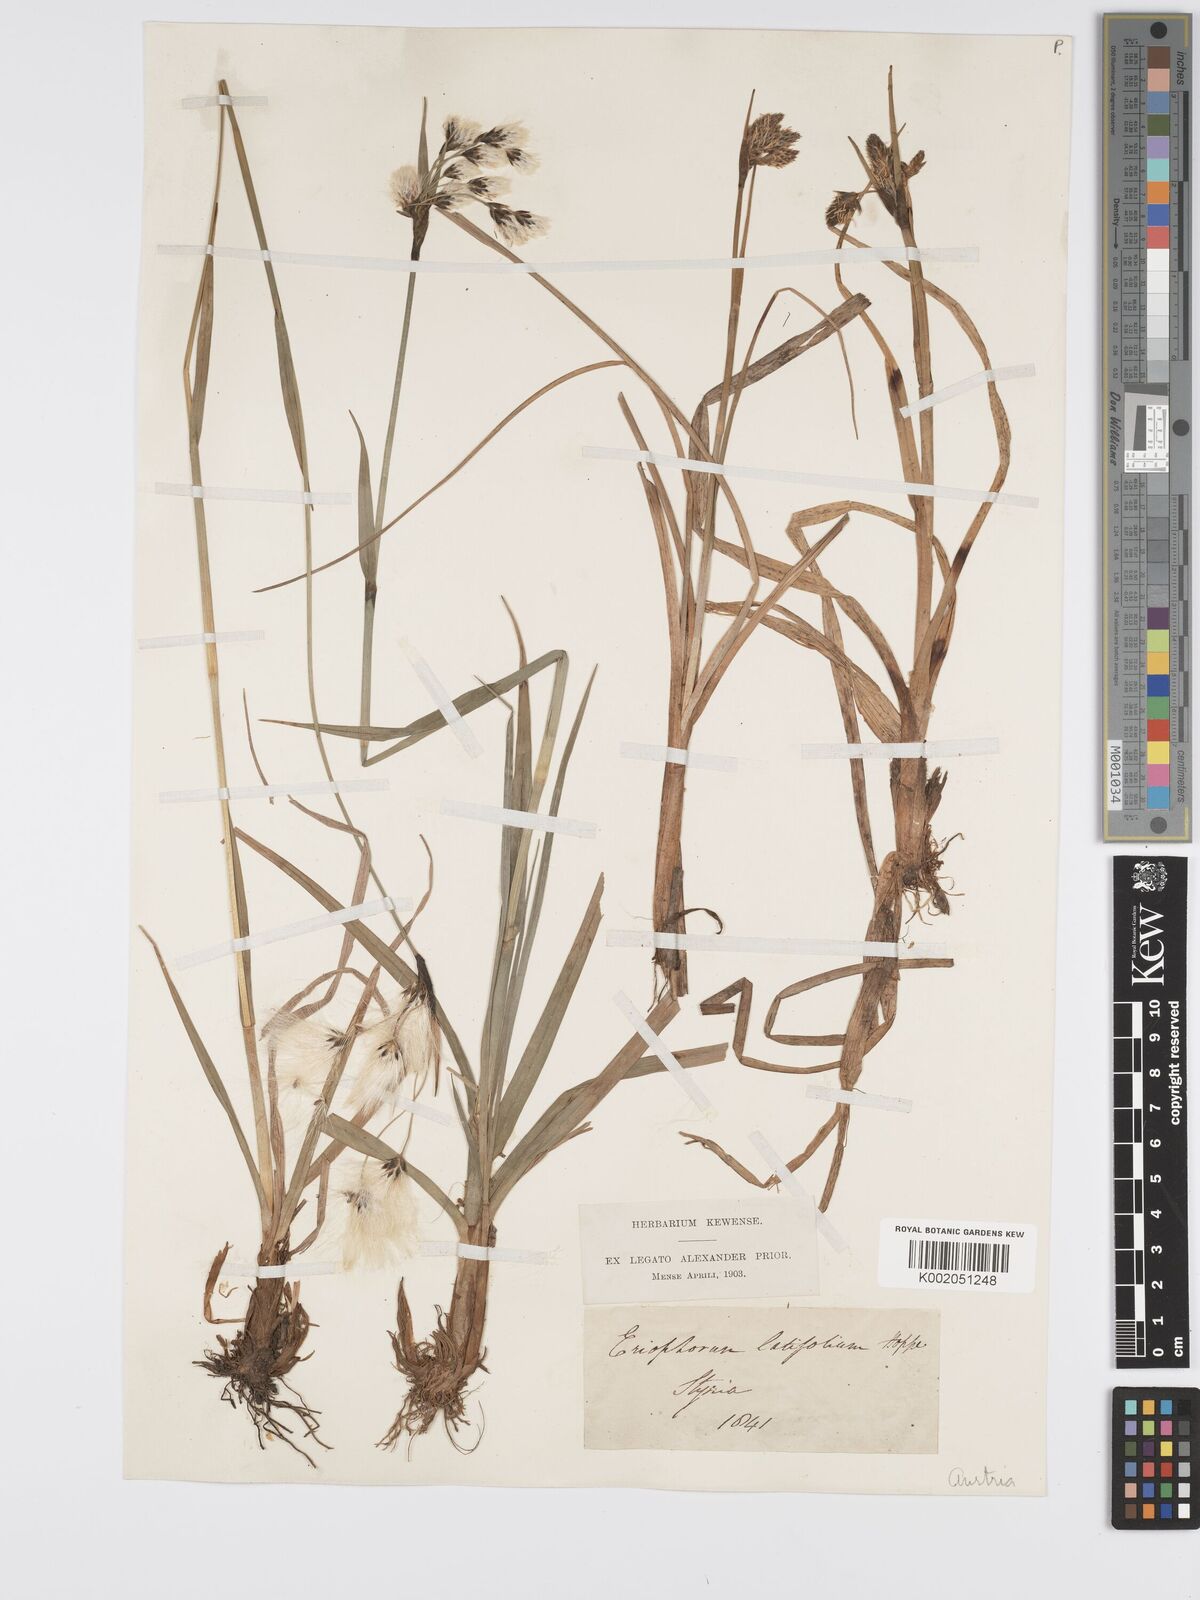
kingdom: Plantae
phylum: Tracheophyta
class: Liliopsida
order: Poales
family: Cyperaceae
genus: Eriophorum
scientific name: Eriophorum latifolium
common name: Broad-leaved cottongrass
